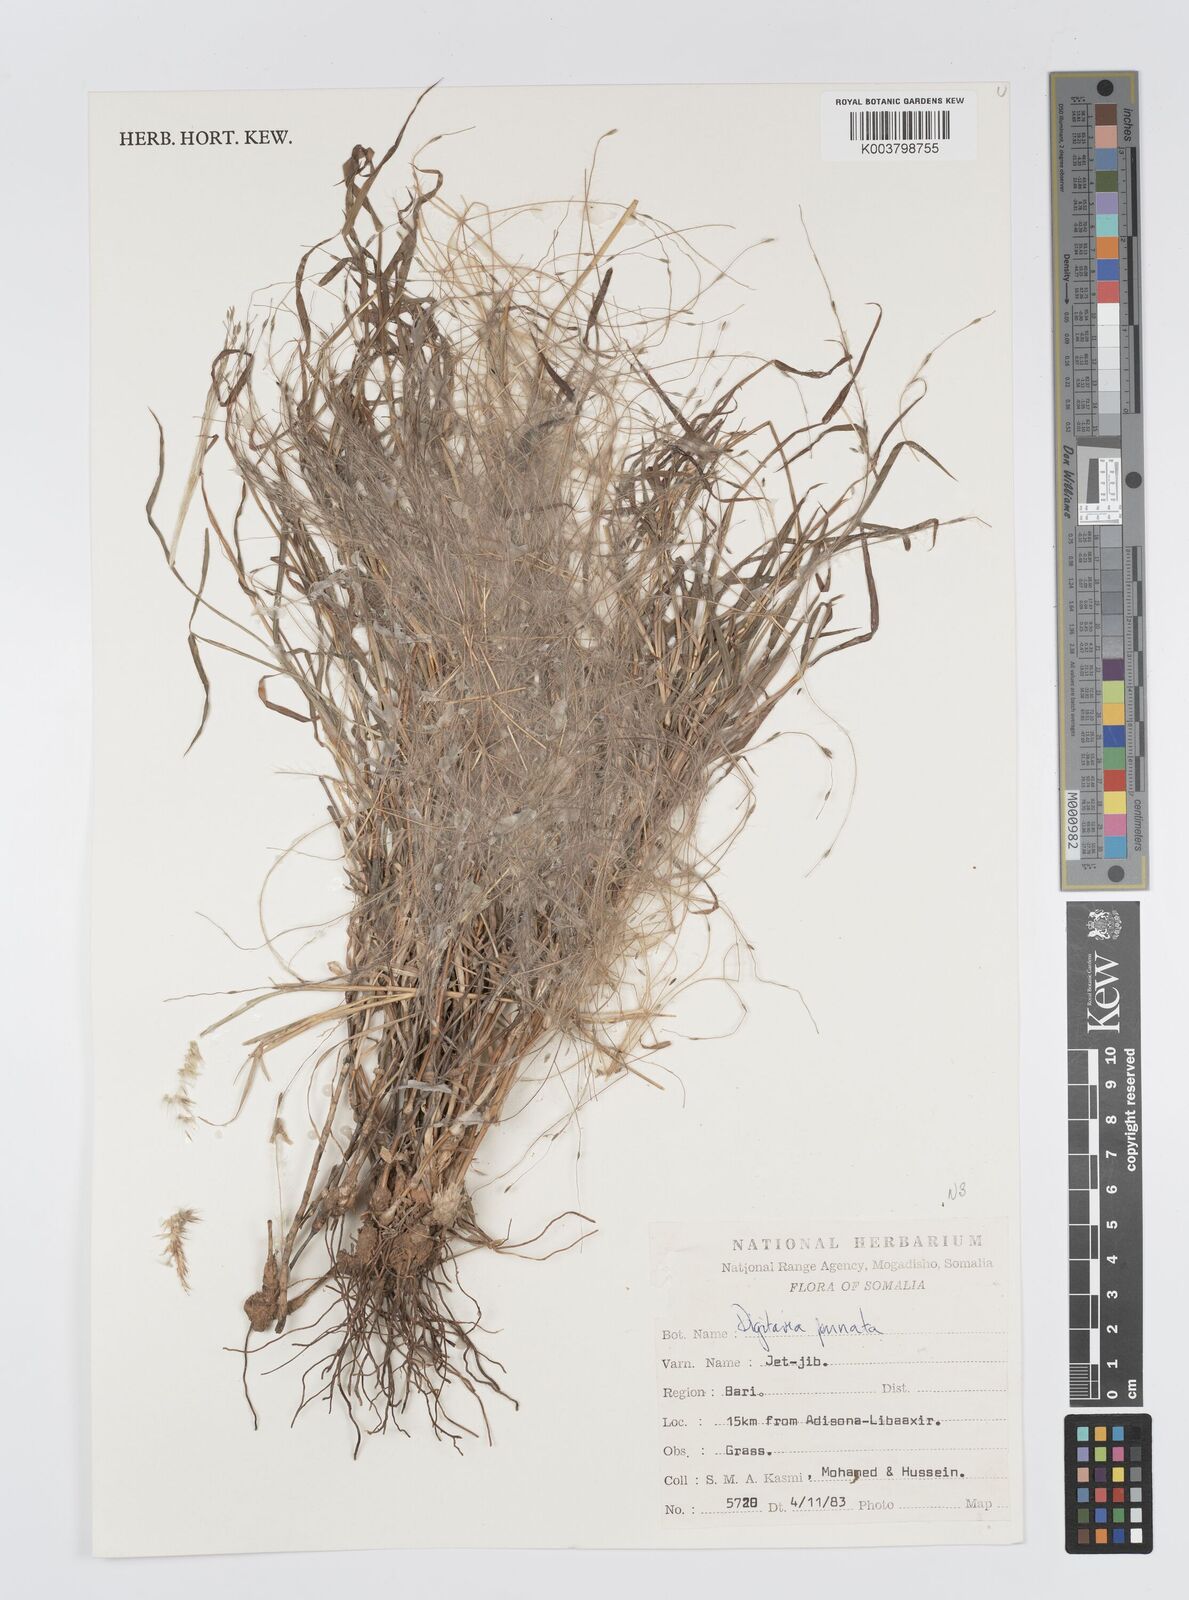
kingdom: Plantae
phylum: Tracheophyta
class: Liliopsida
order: Poales
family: Poaceae
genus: Digitaria
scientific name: Digitaria pennata
